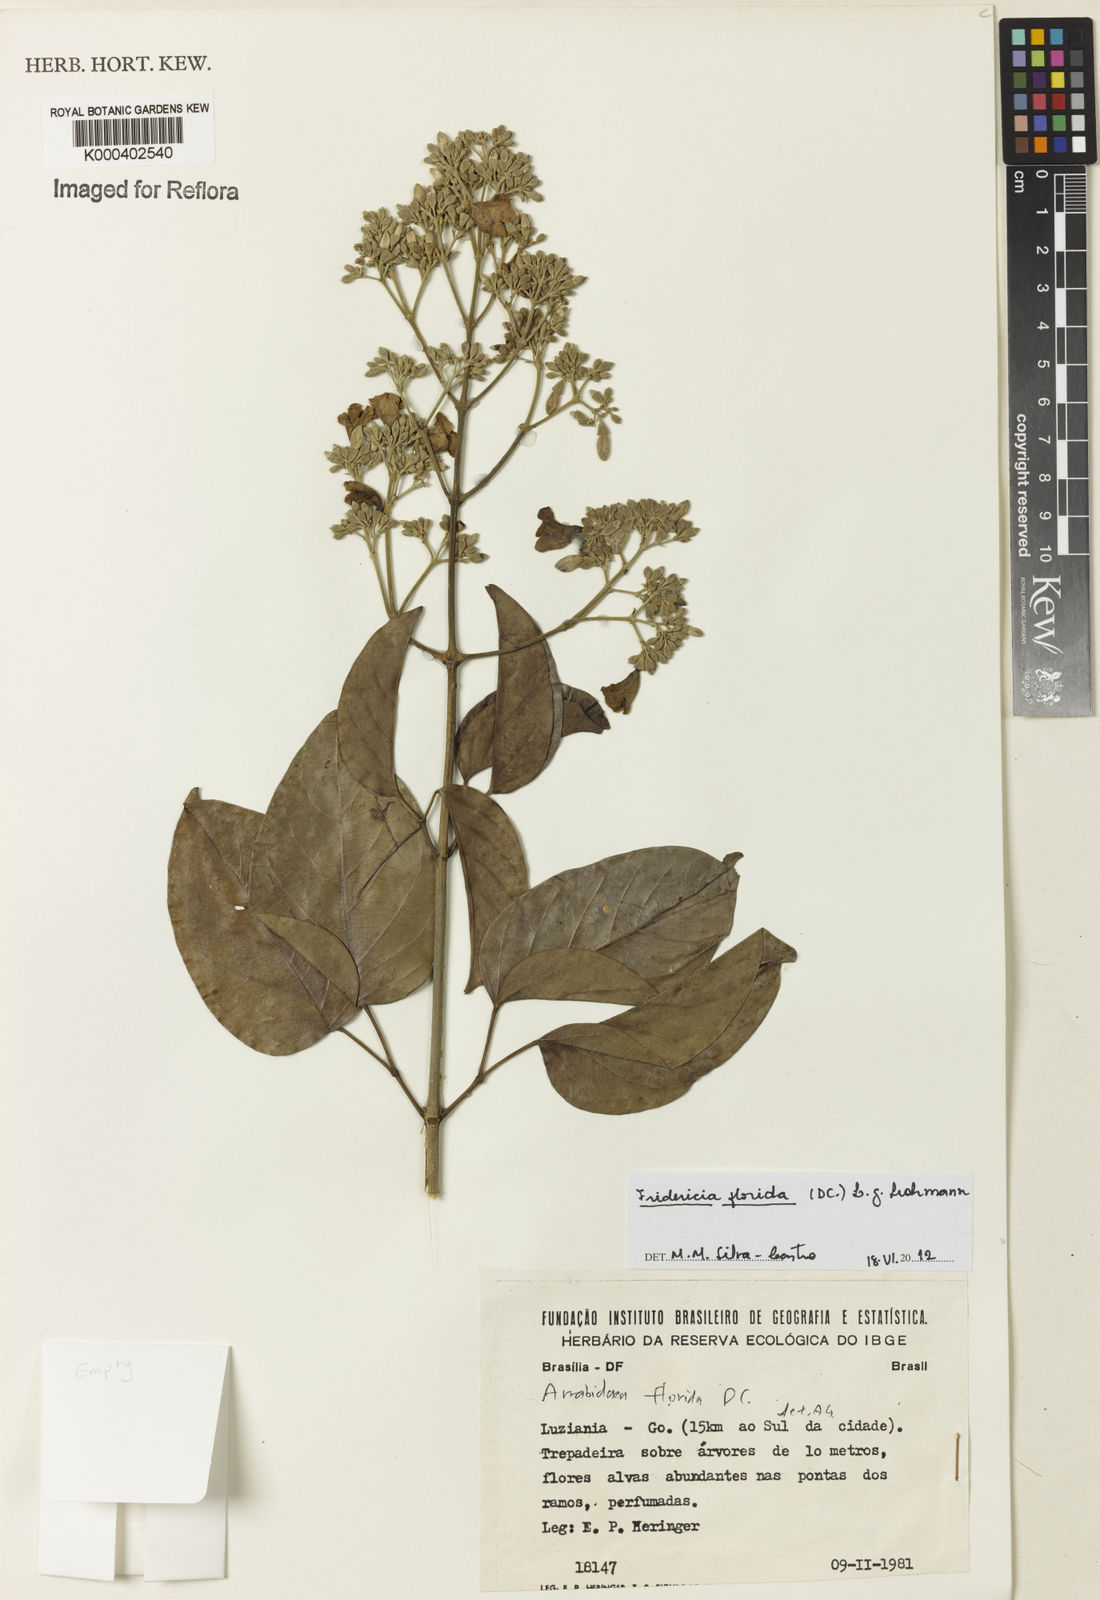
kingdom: Plantae
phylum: Tracheophyta
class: Magnoliopsida
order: Lamiales
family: Bignoniaceae
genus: Fridericia
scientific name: Fridericia florida
